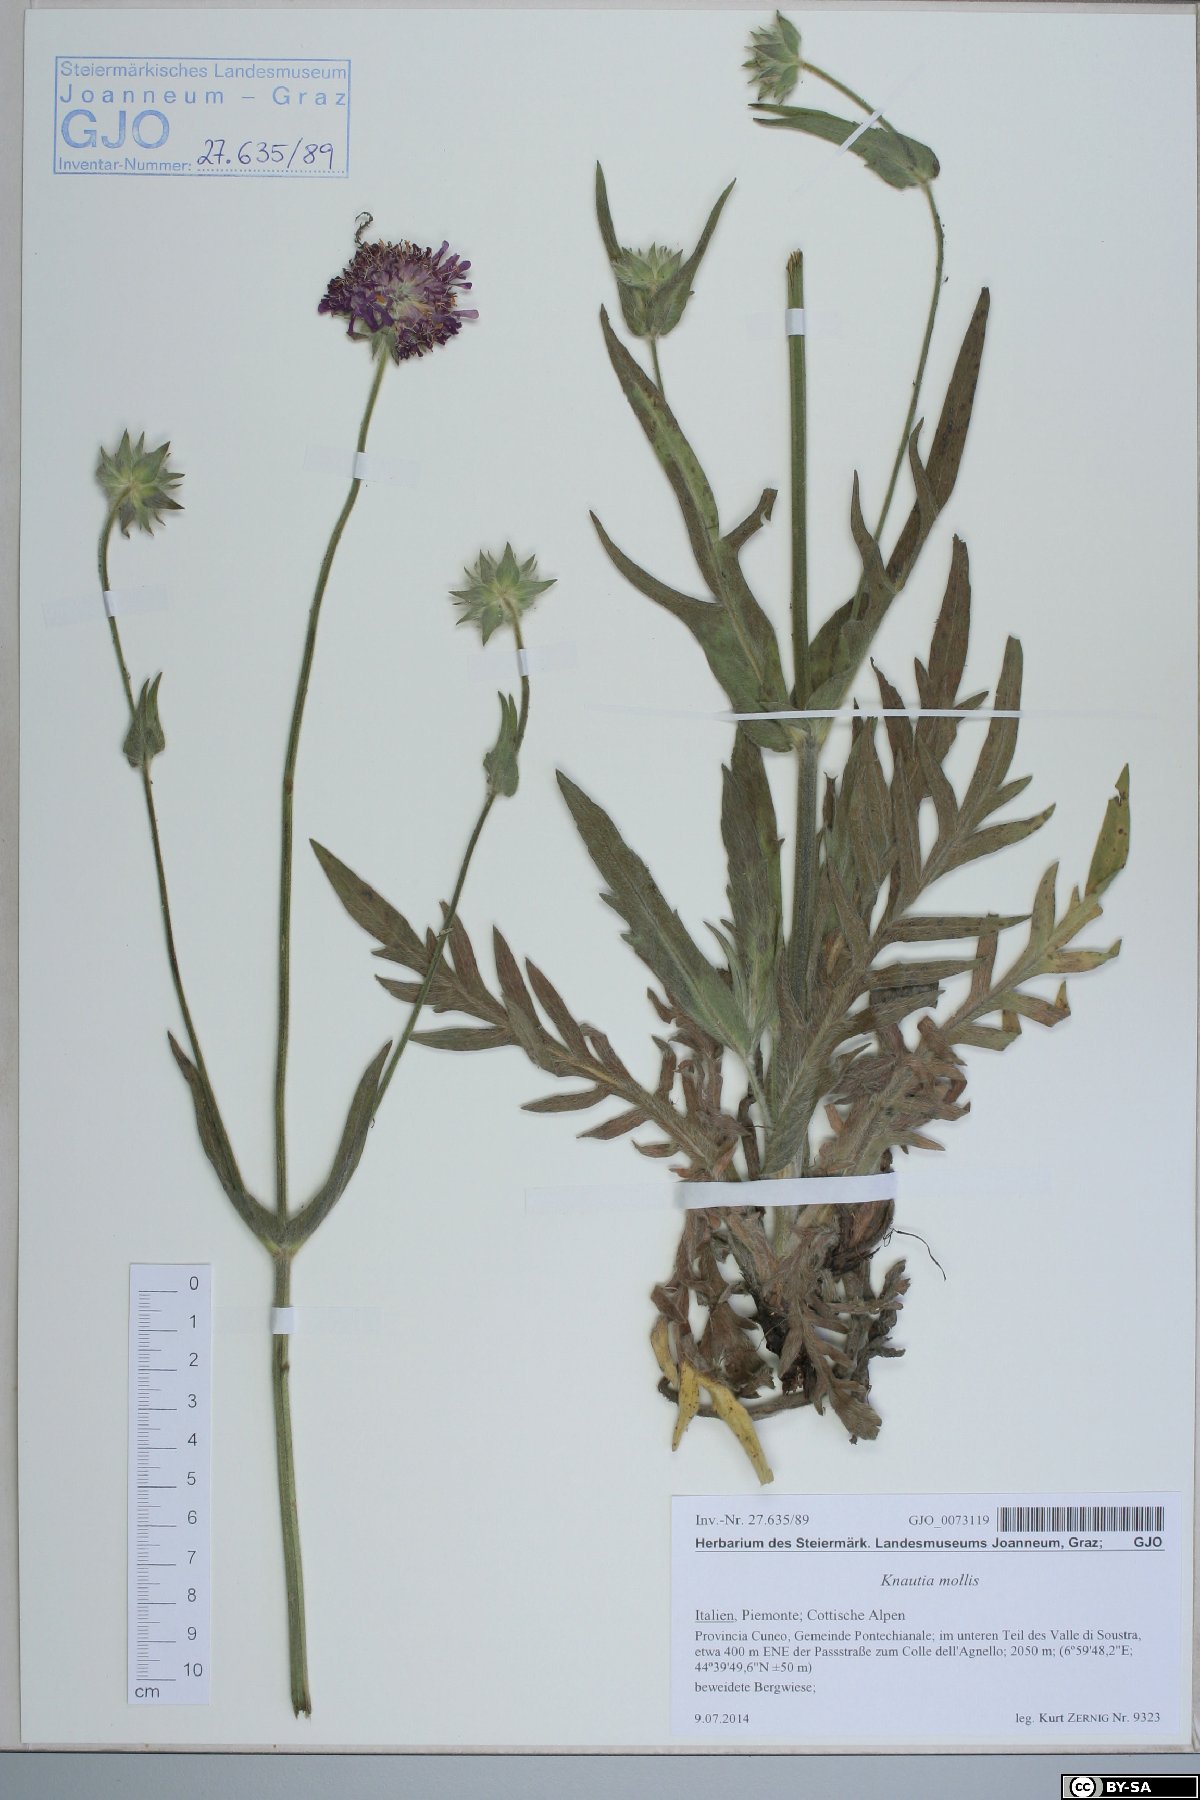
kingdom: Plantae
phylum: Tracheophyta
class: Magnoliopsida
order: Dipsacales
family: Caprifoliaceae
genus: Knautia
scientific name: Knautia mollis
